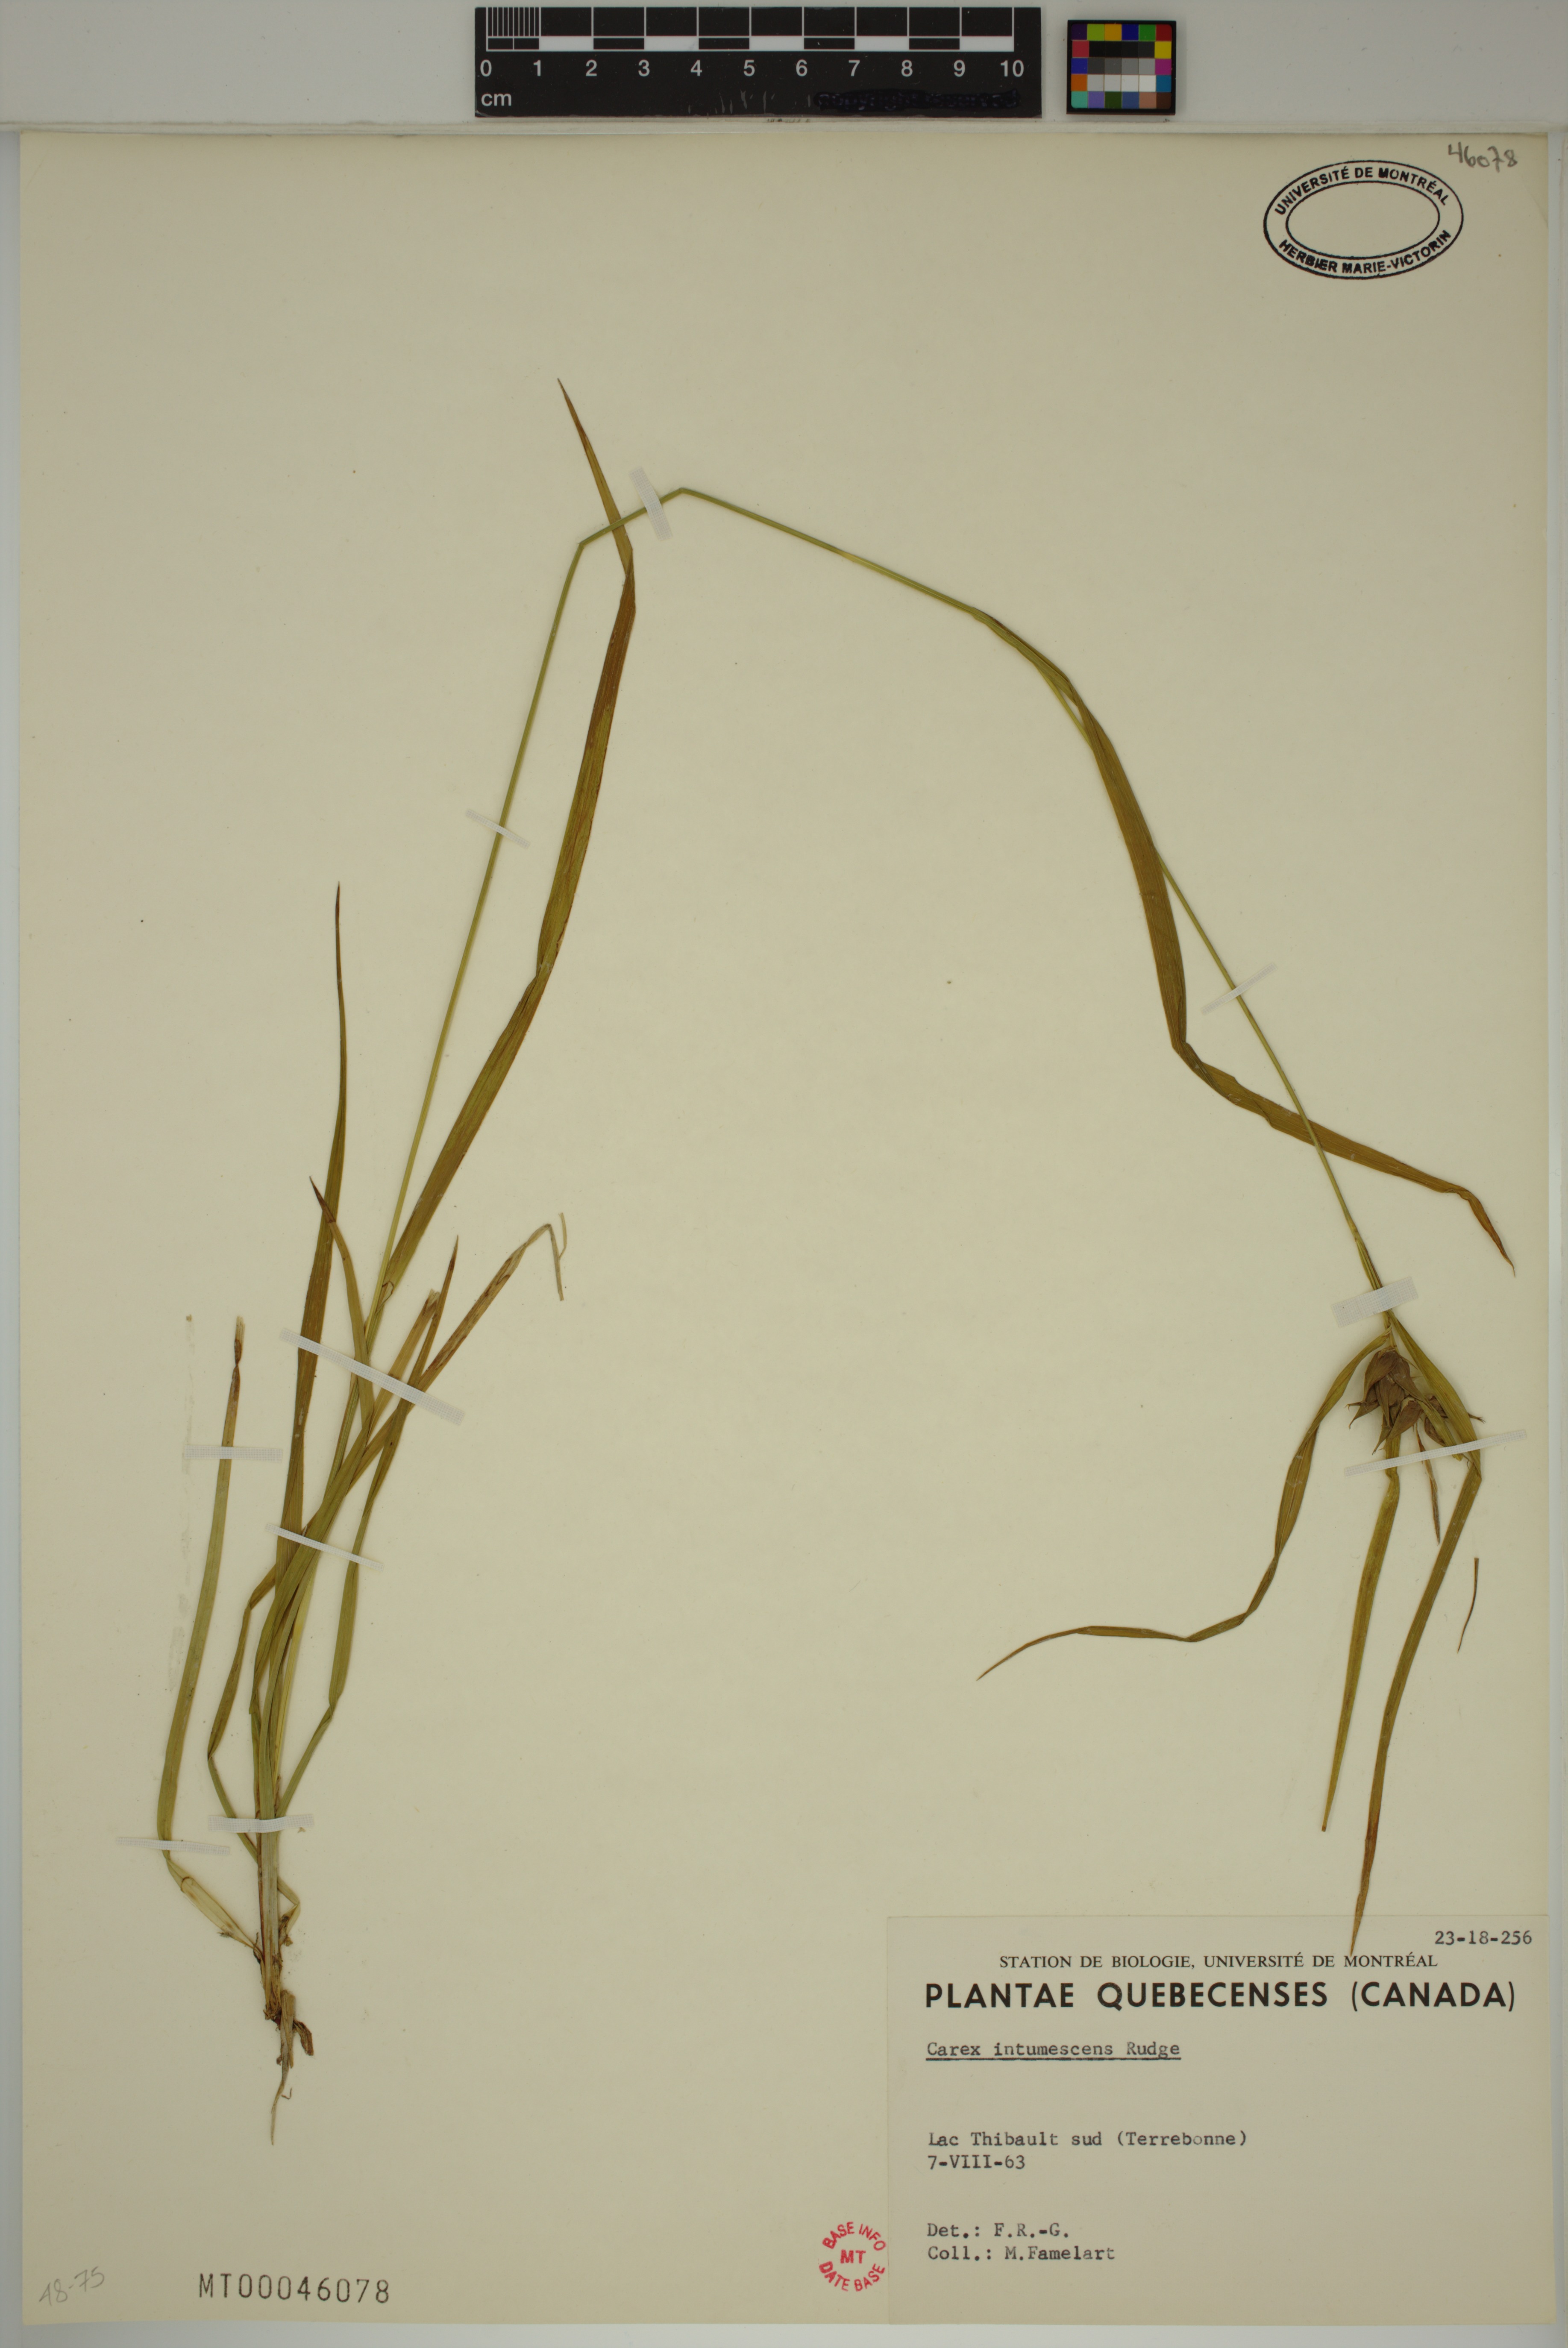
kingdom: Plantae
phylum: Tracheophyta
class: Liliopsida
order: Poales
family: Cyperaceae
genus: Carex
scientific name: Carex intumescens
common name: Greater bladder sedge
